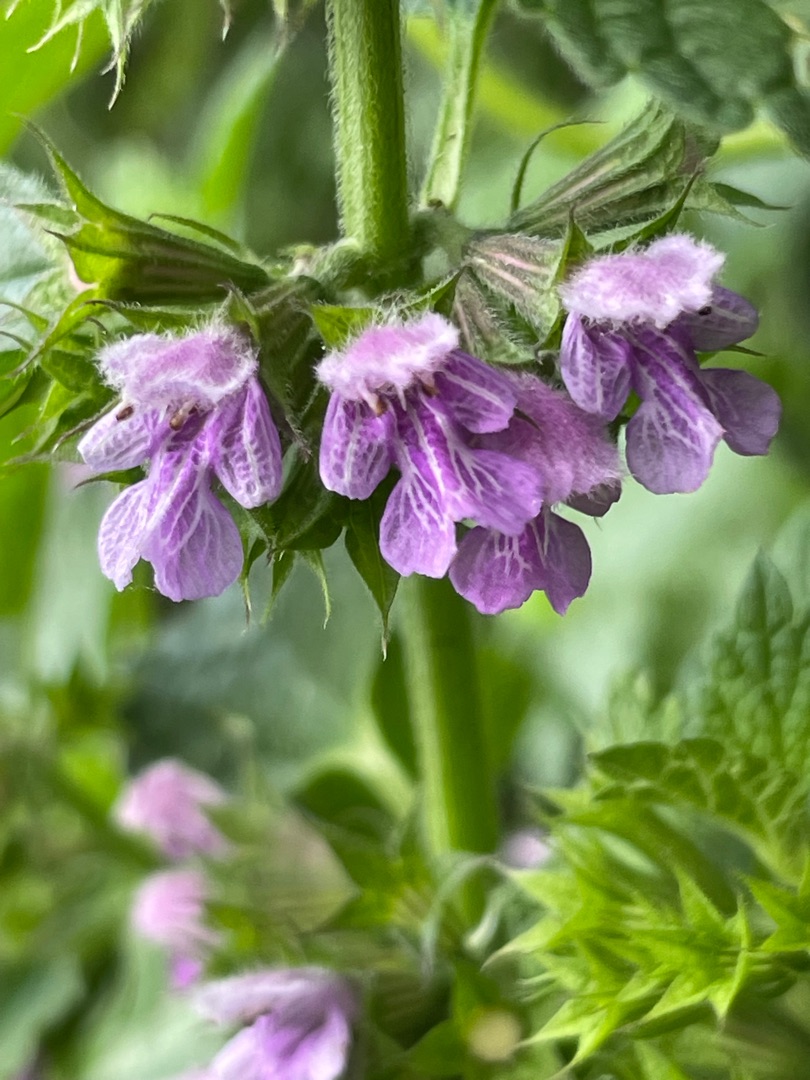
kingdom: Plantae
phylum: Tracheophyta
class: Magnoliopsida
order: Lamiales
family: Lamiaceae
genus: Ballota
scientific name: Ballota nigra
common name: Tandbæger
